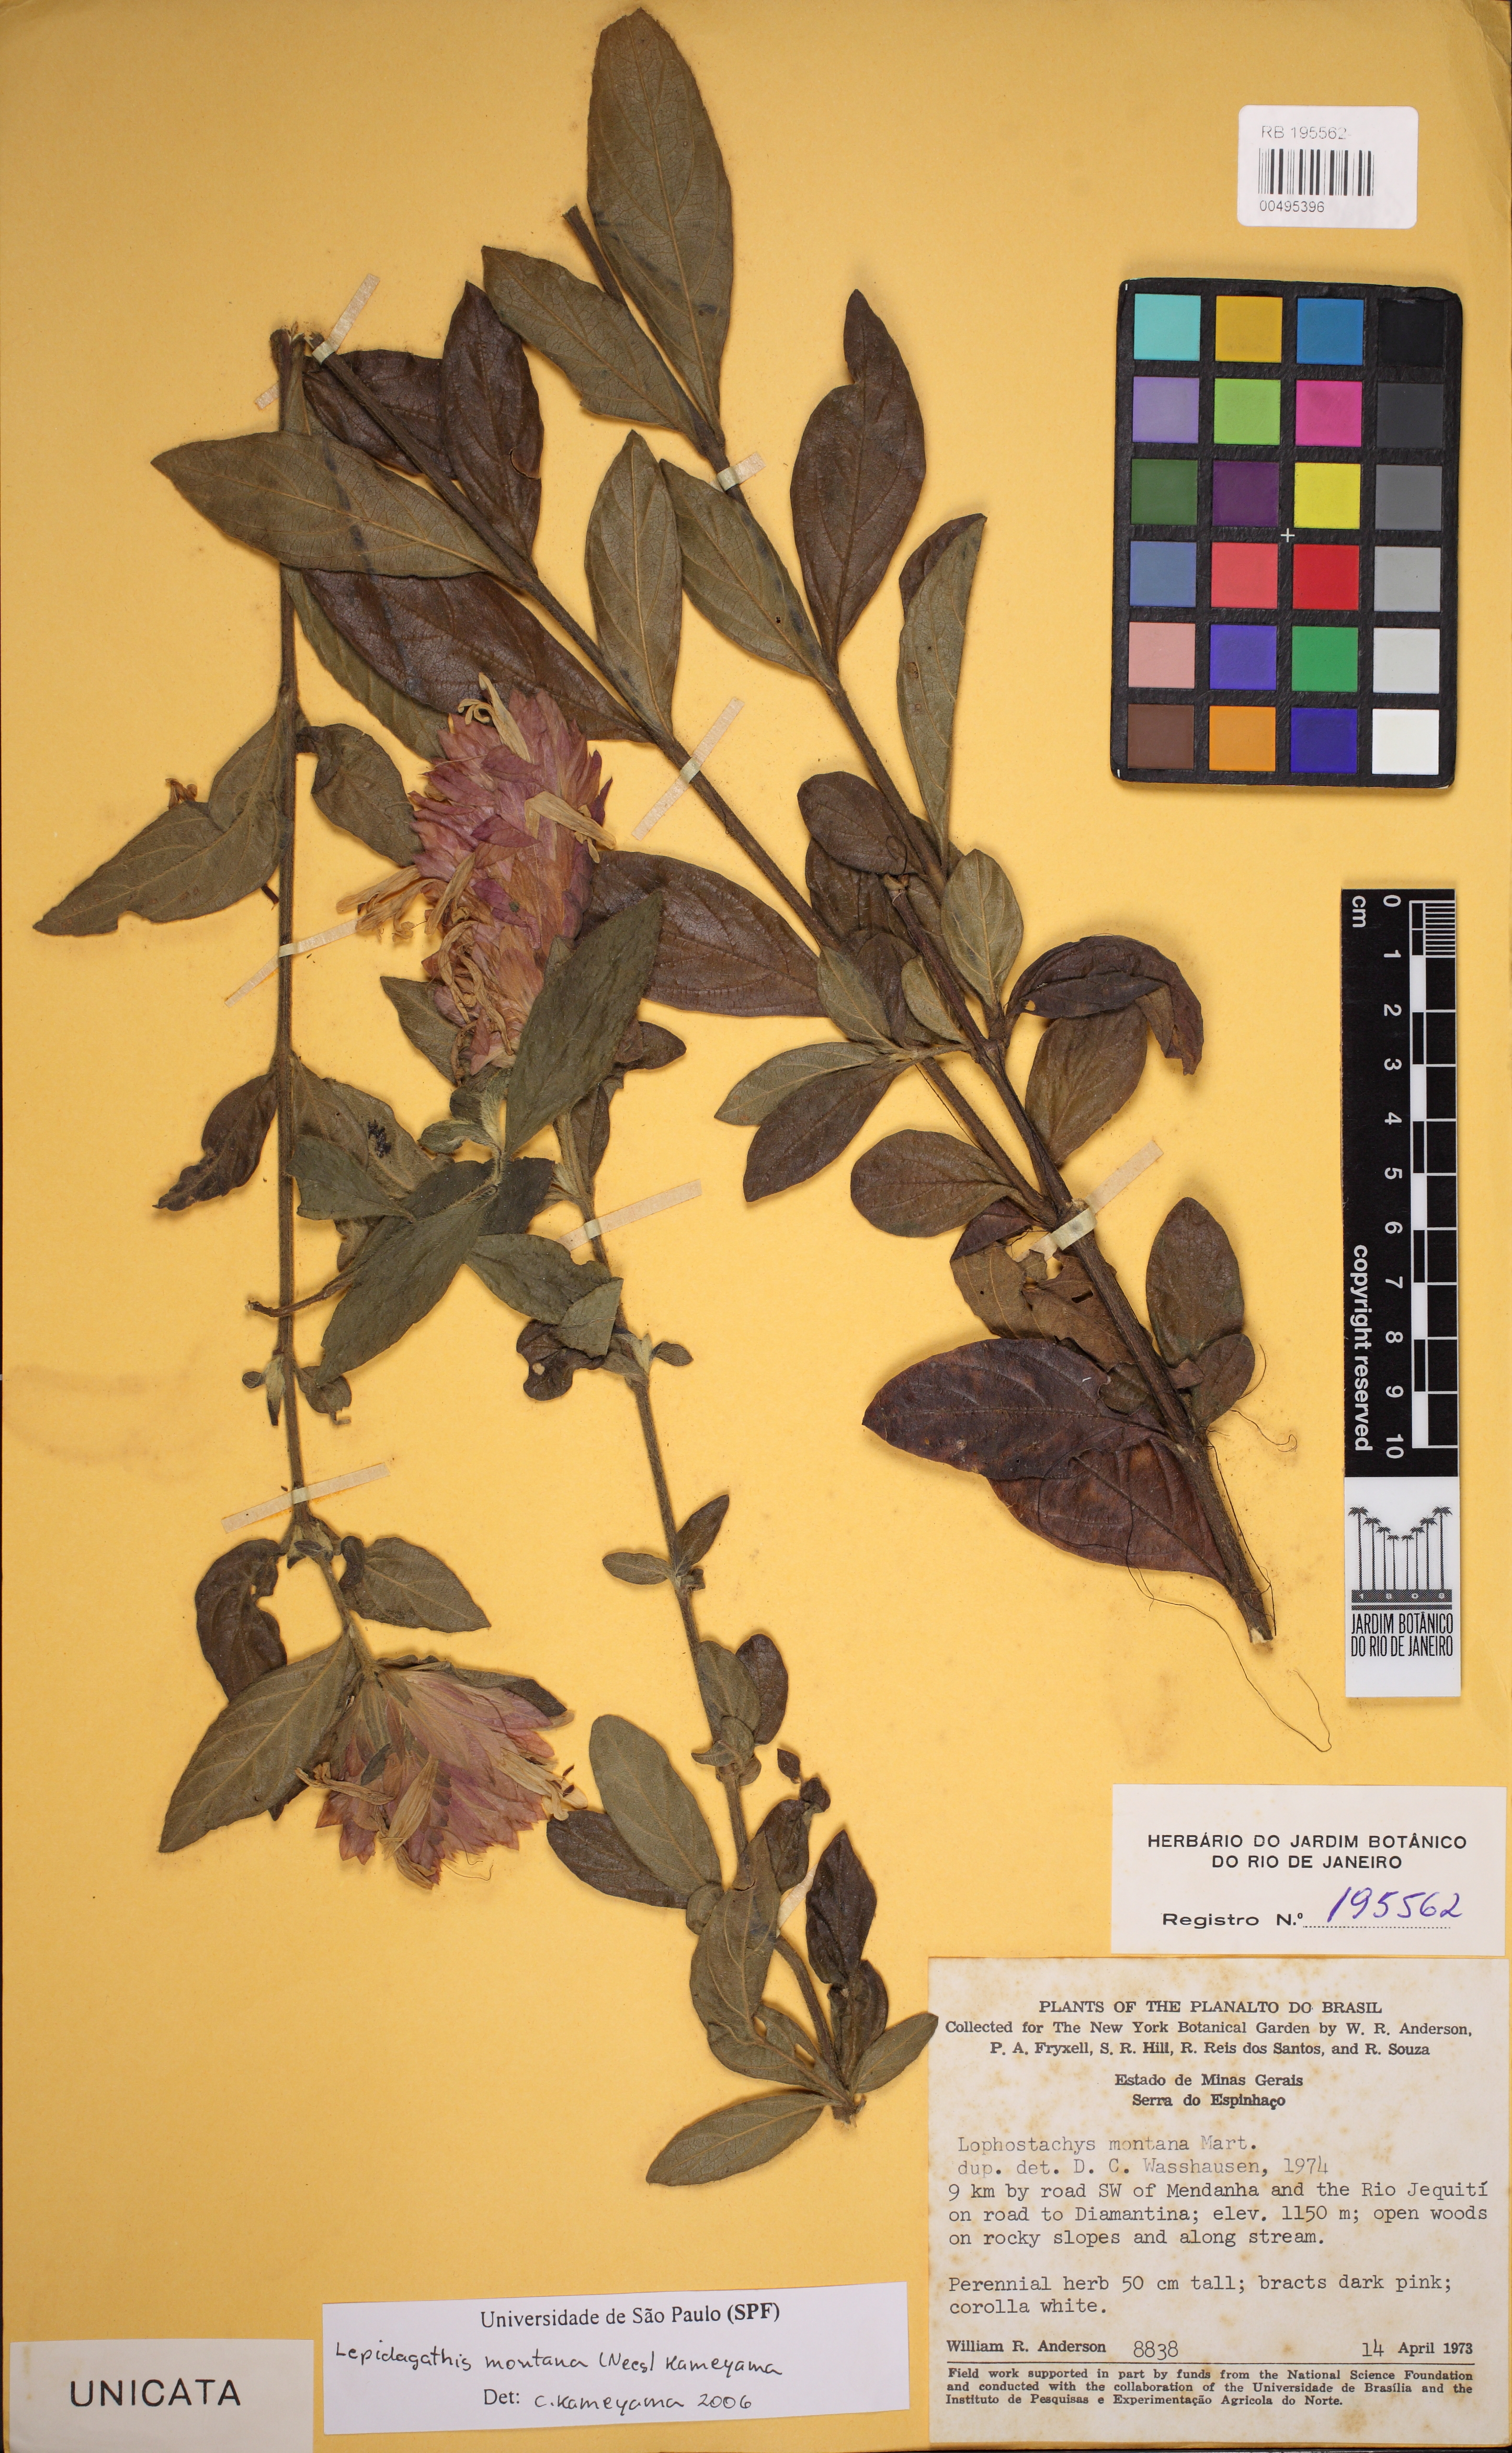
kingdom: Plantae
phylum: Tracheophyta
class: Magnoliopsida
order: Lamiales
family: Acanthaceae
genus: Lepidagathis
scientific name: Lepidagathis montana
